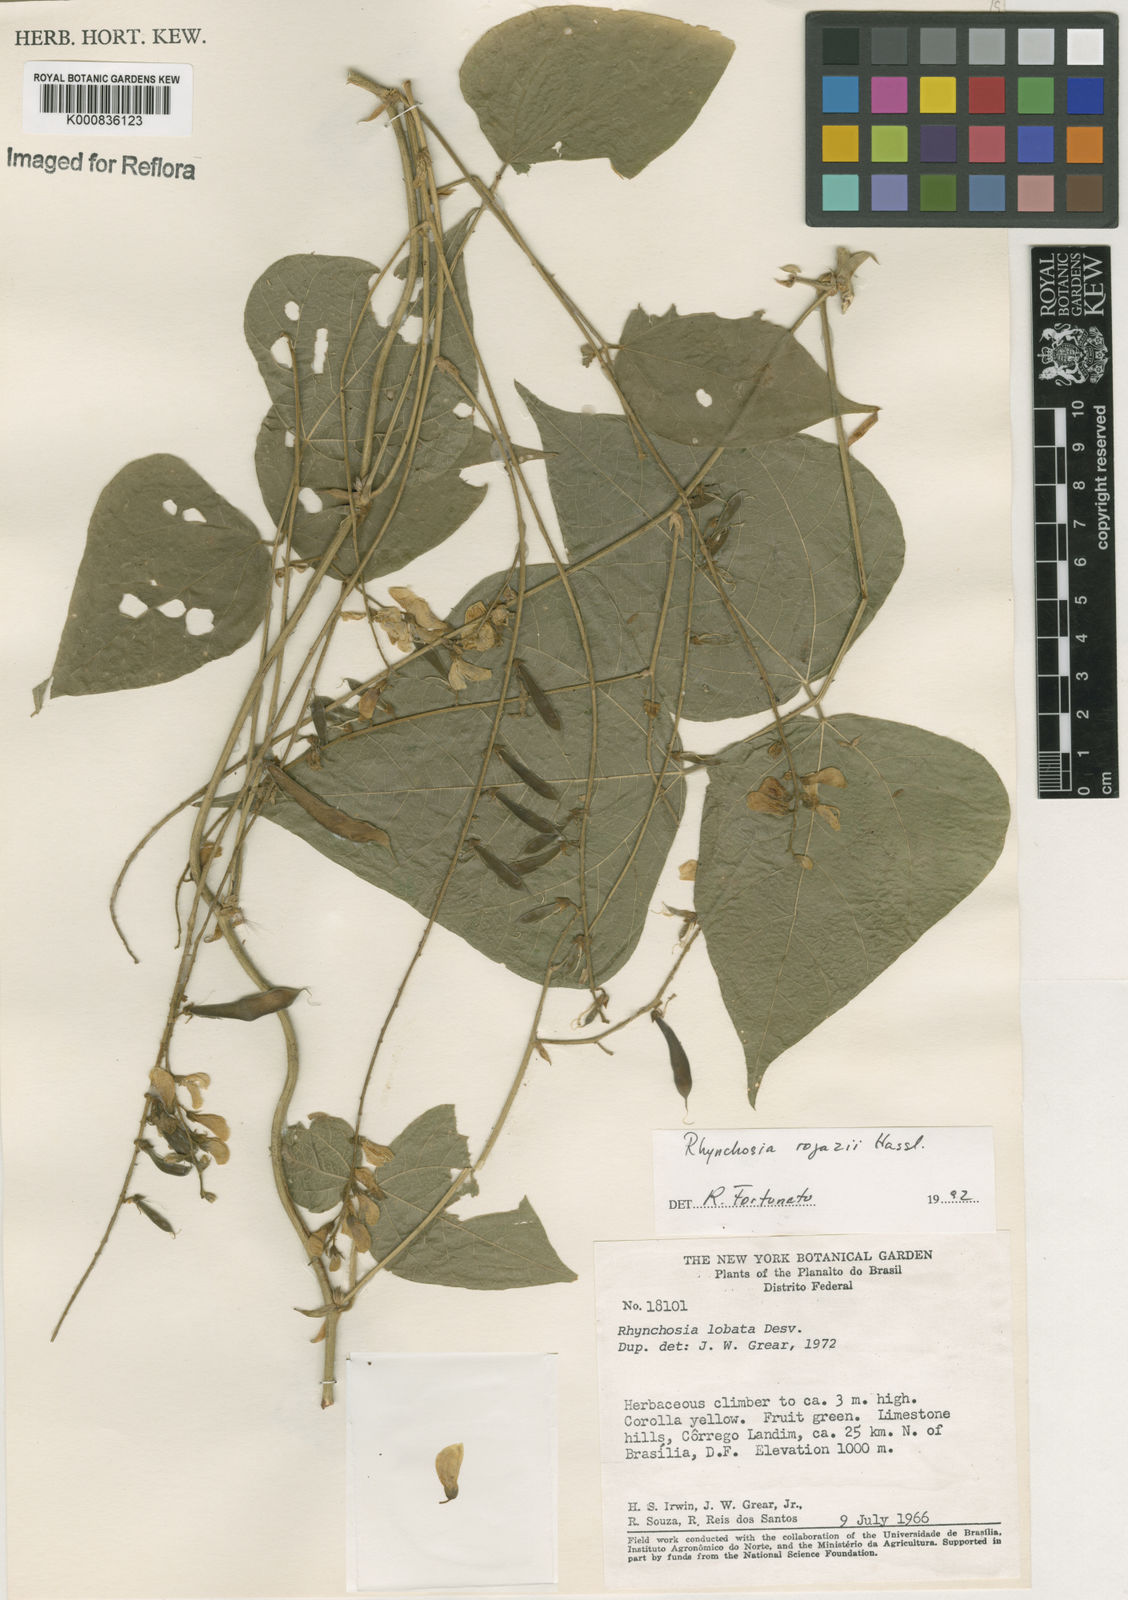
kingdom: Plantae
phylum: Tracheophyta
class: Magnoliopsida
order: Fabales
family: Fabaceae
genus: Rhynchosia
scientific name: Rhynchosia rojasii
